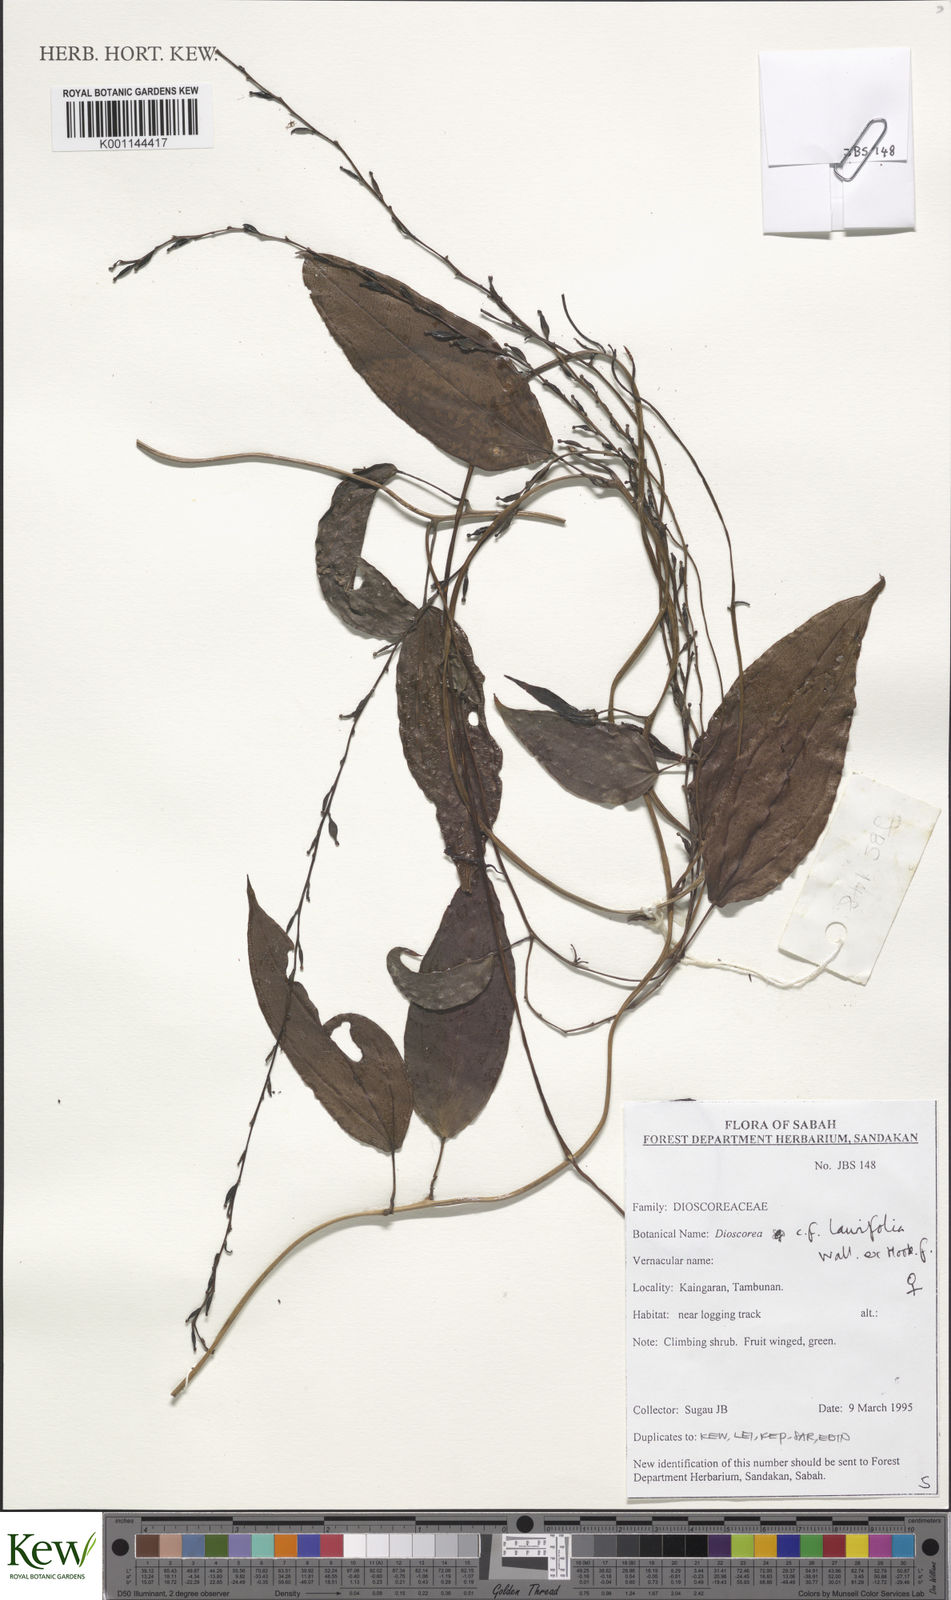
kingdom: Plantae
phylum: Tracheophyta
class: Liliopsida
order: Dioscoreales
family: Dioscoreaceae
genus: Dioscorea
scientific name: Dioscorea laurifolia
